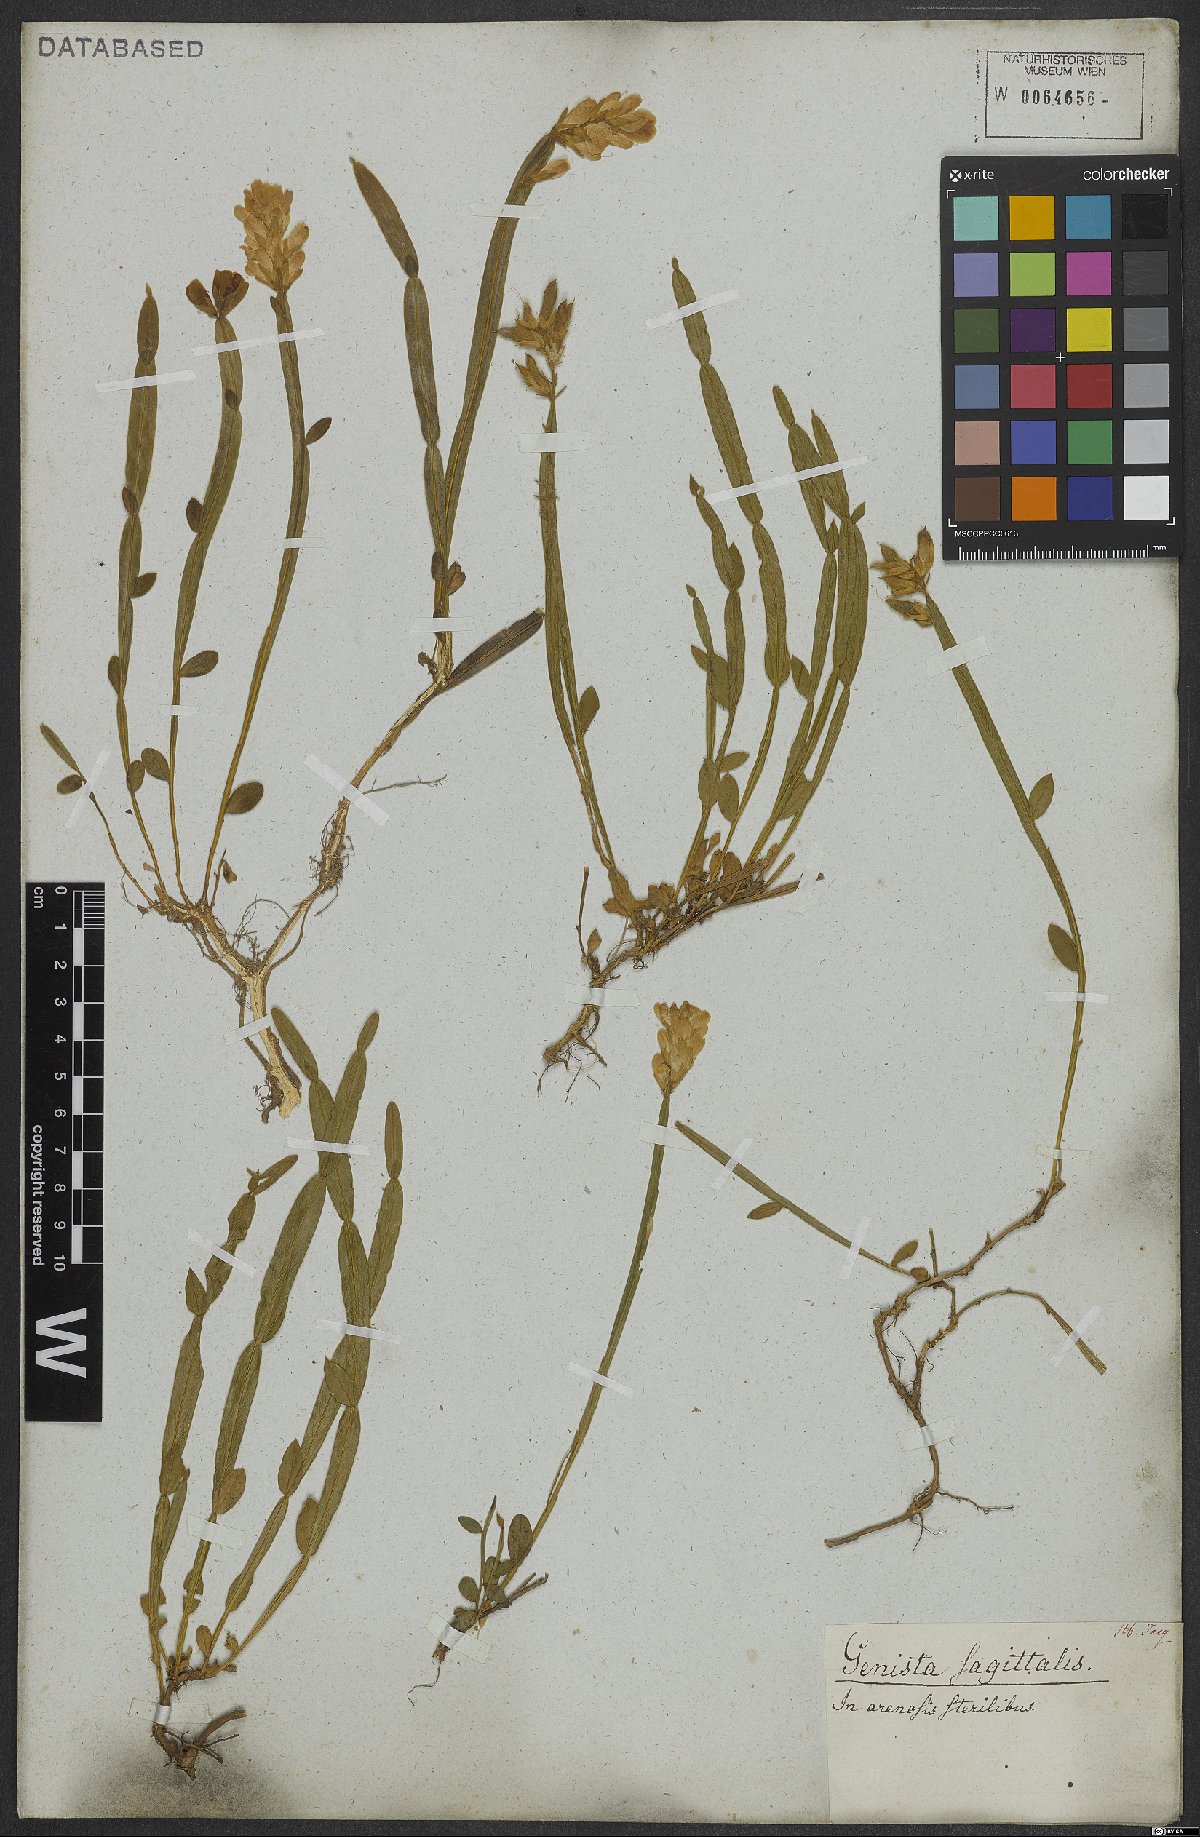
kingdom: Plantae
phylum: Tracheophyta
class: Magnoliopsida
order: Fabales
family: Fabaceae
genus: Genista
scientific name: Genista sagittalis
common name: Winged greenweed
